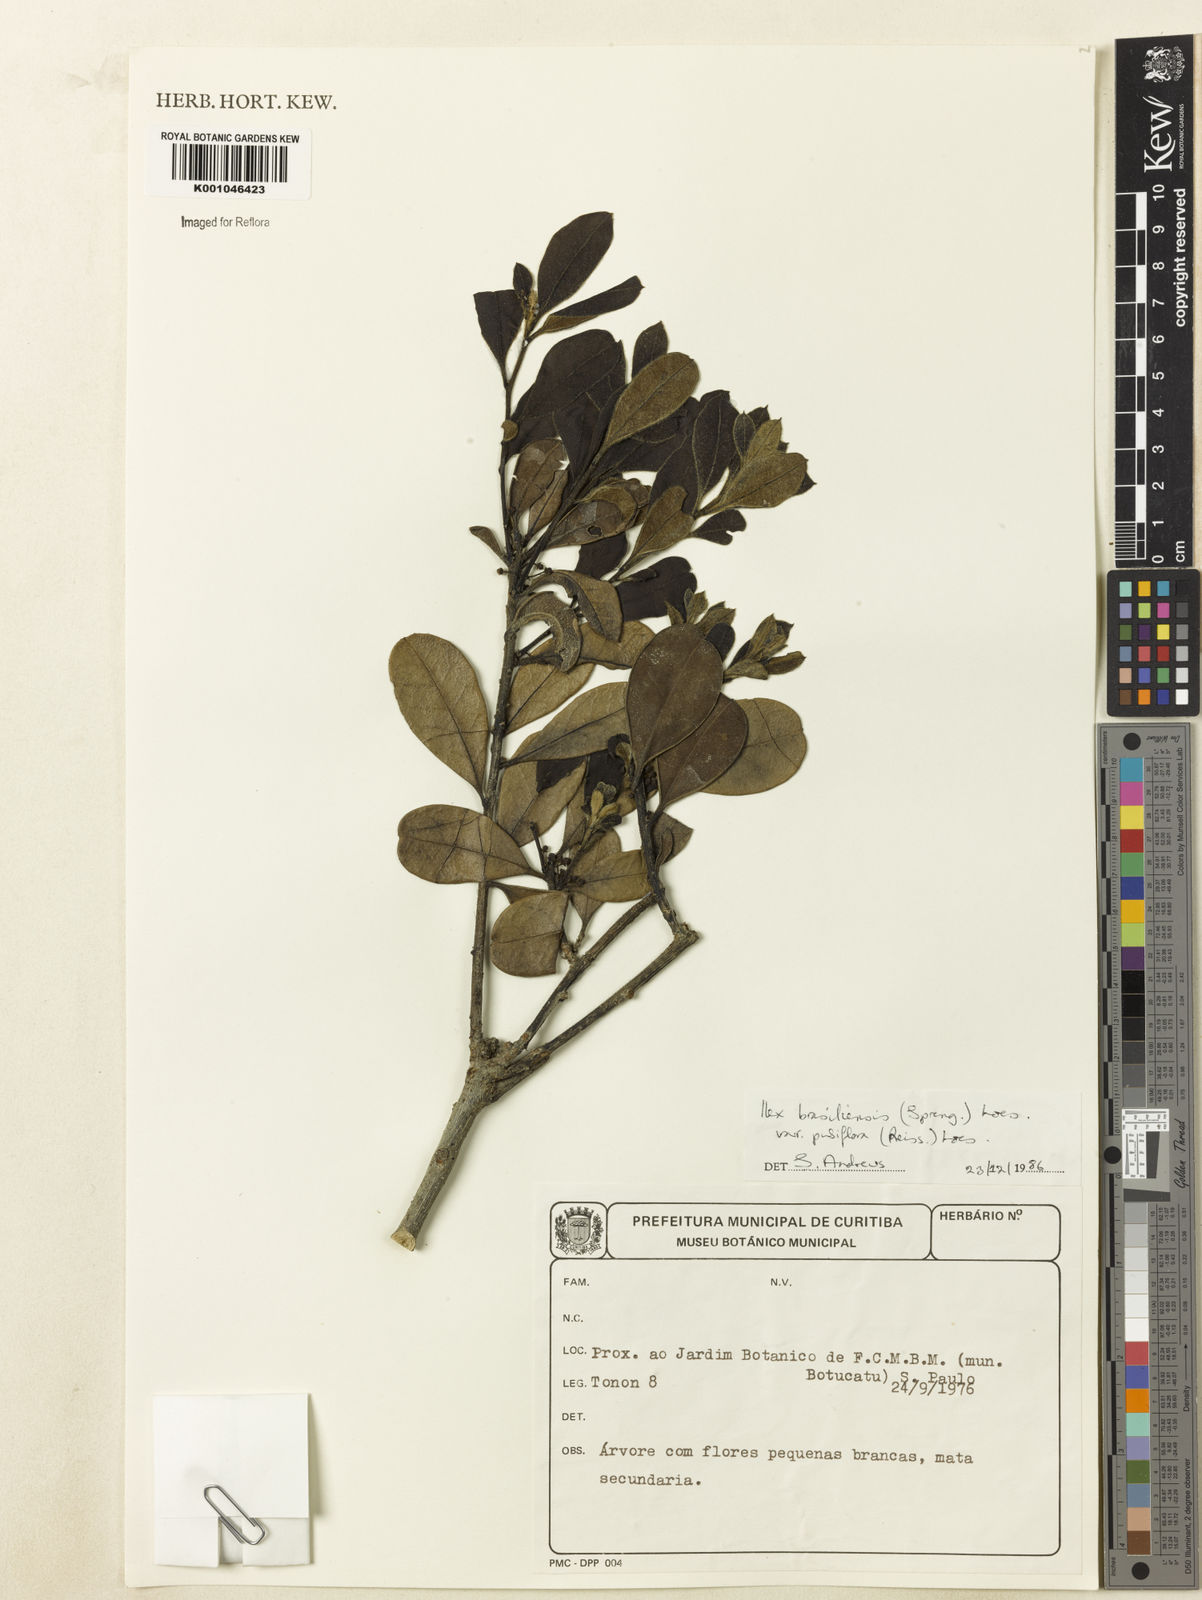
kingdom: Plantae
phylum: Tracheophyta
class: Magnoliopsida
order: Aquifoliales
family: Aquifoliaceae
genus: Ilex
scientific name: Ilex brasiliensis
